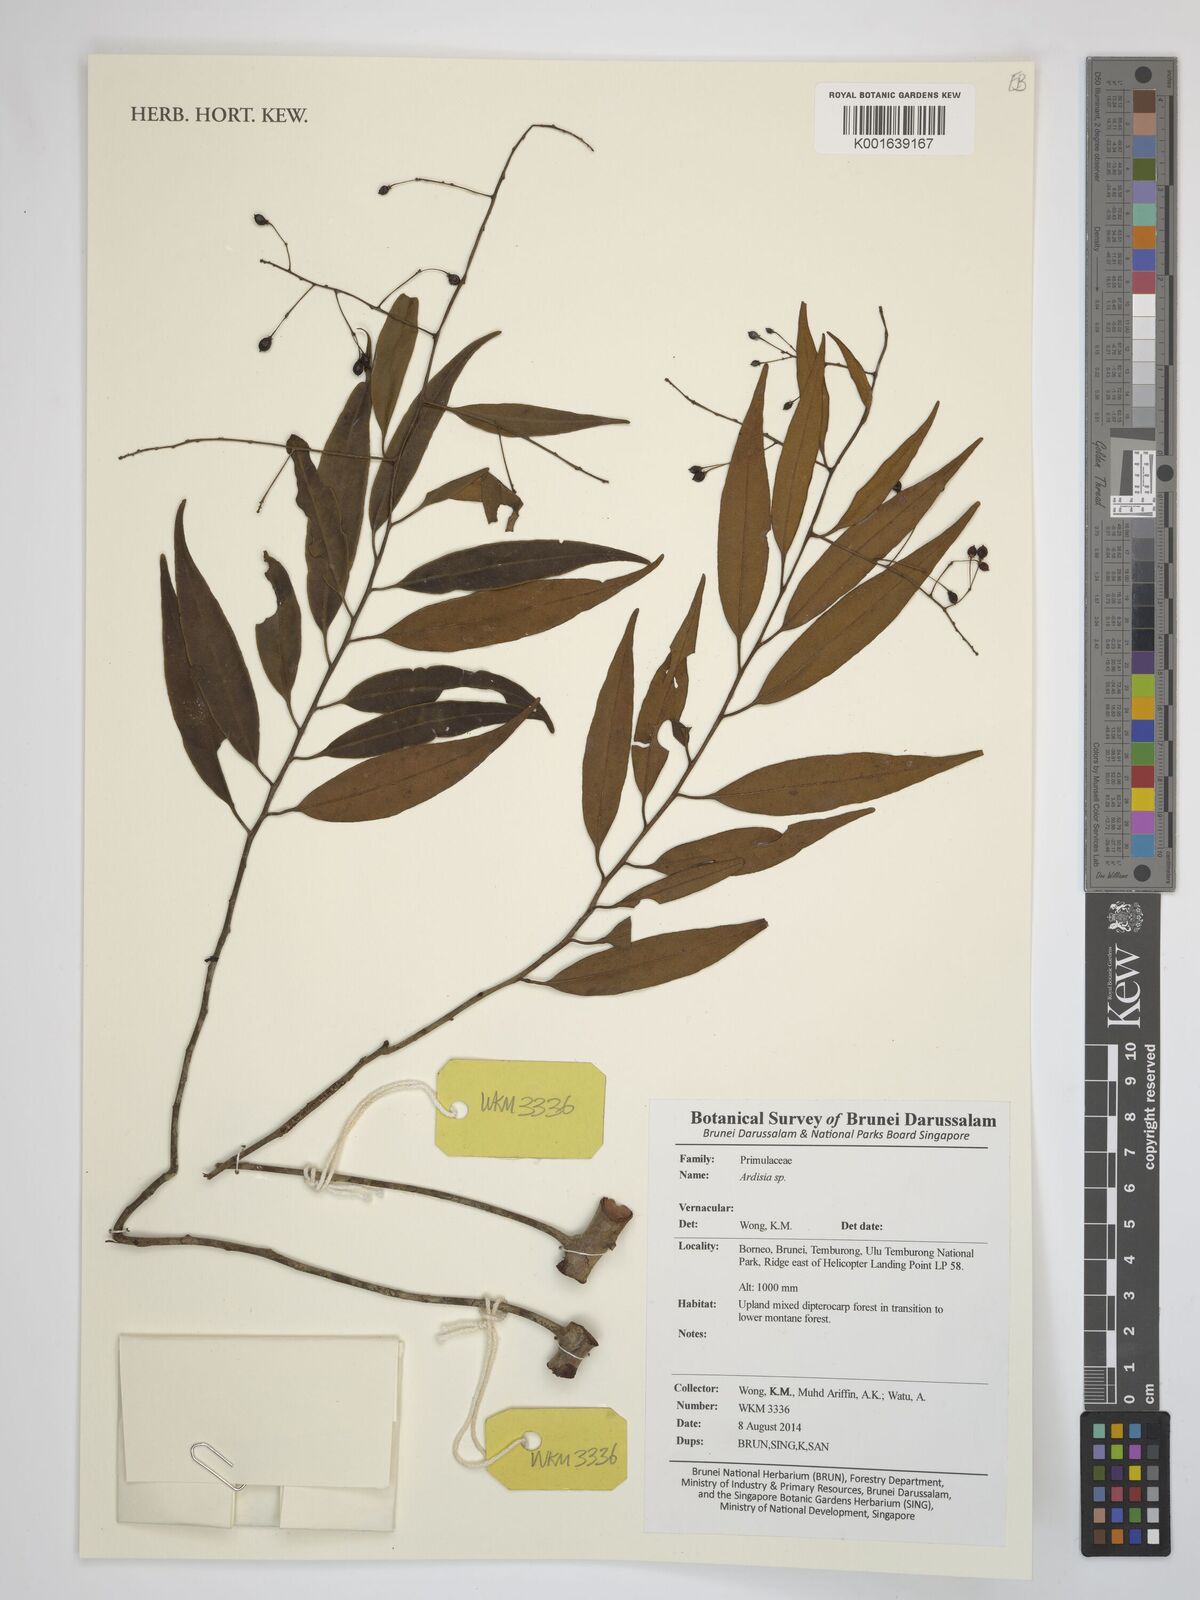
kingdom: Plantae
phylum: Tracheophyta
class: Magnoliopsida
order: Ericales
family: Primulaceae
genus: Ardisia
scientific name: Ardisia
